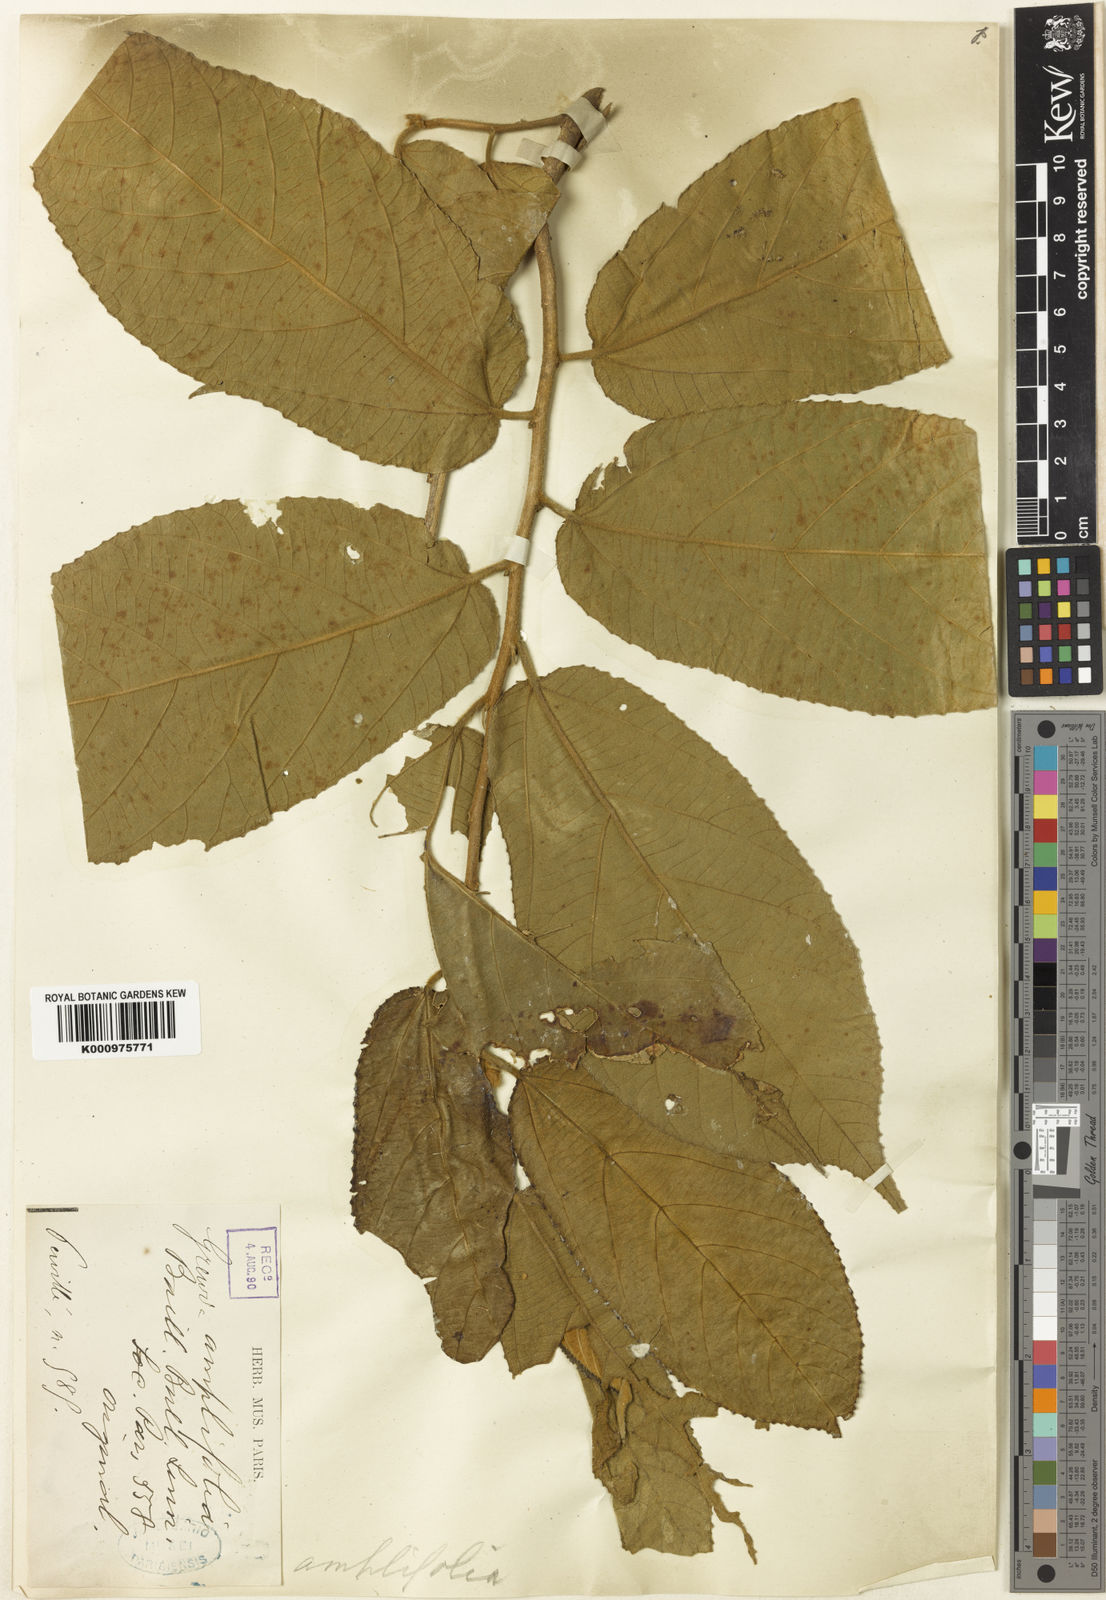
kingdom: Plantae
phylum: Tracheophyta
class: Magnoliopsida
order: Malvales
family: Malvaceae
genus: Grewia
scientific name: Grewia amplifolia
